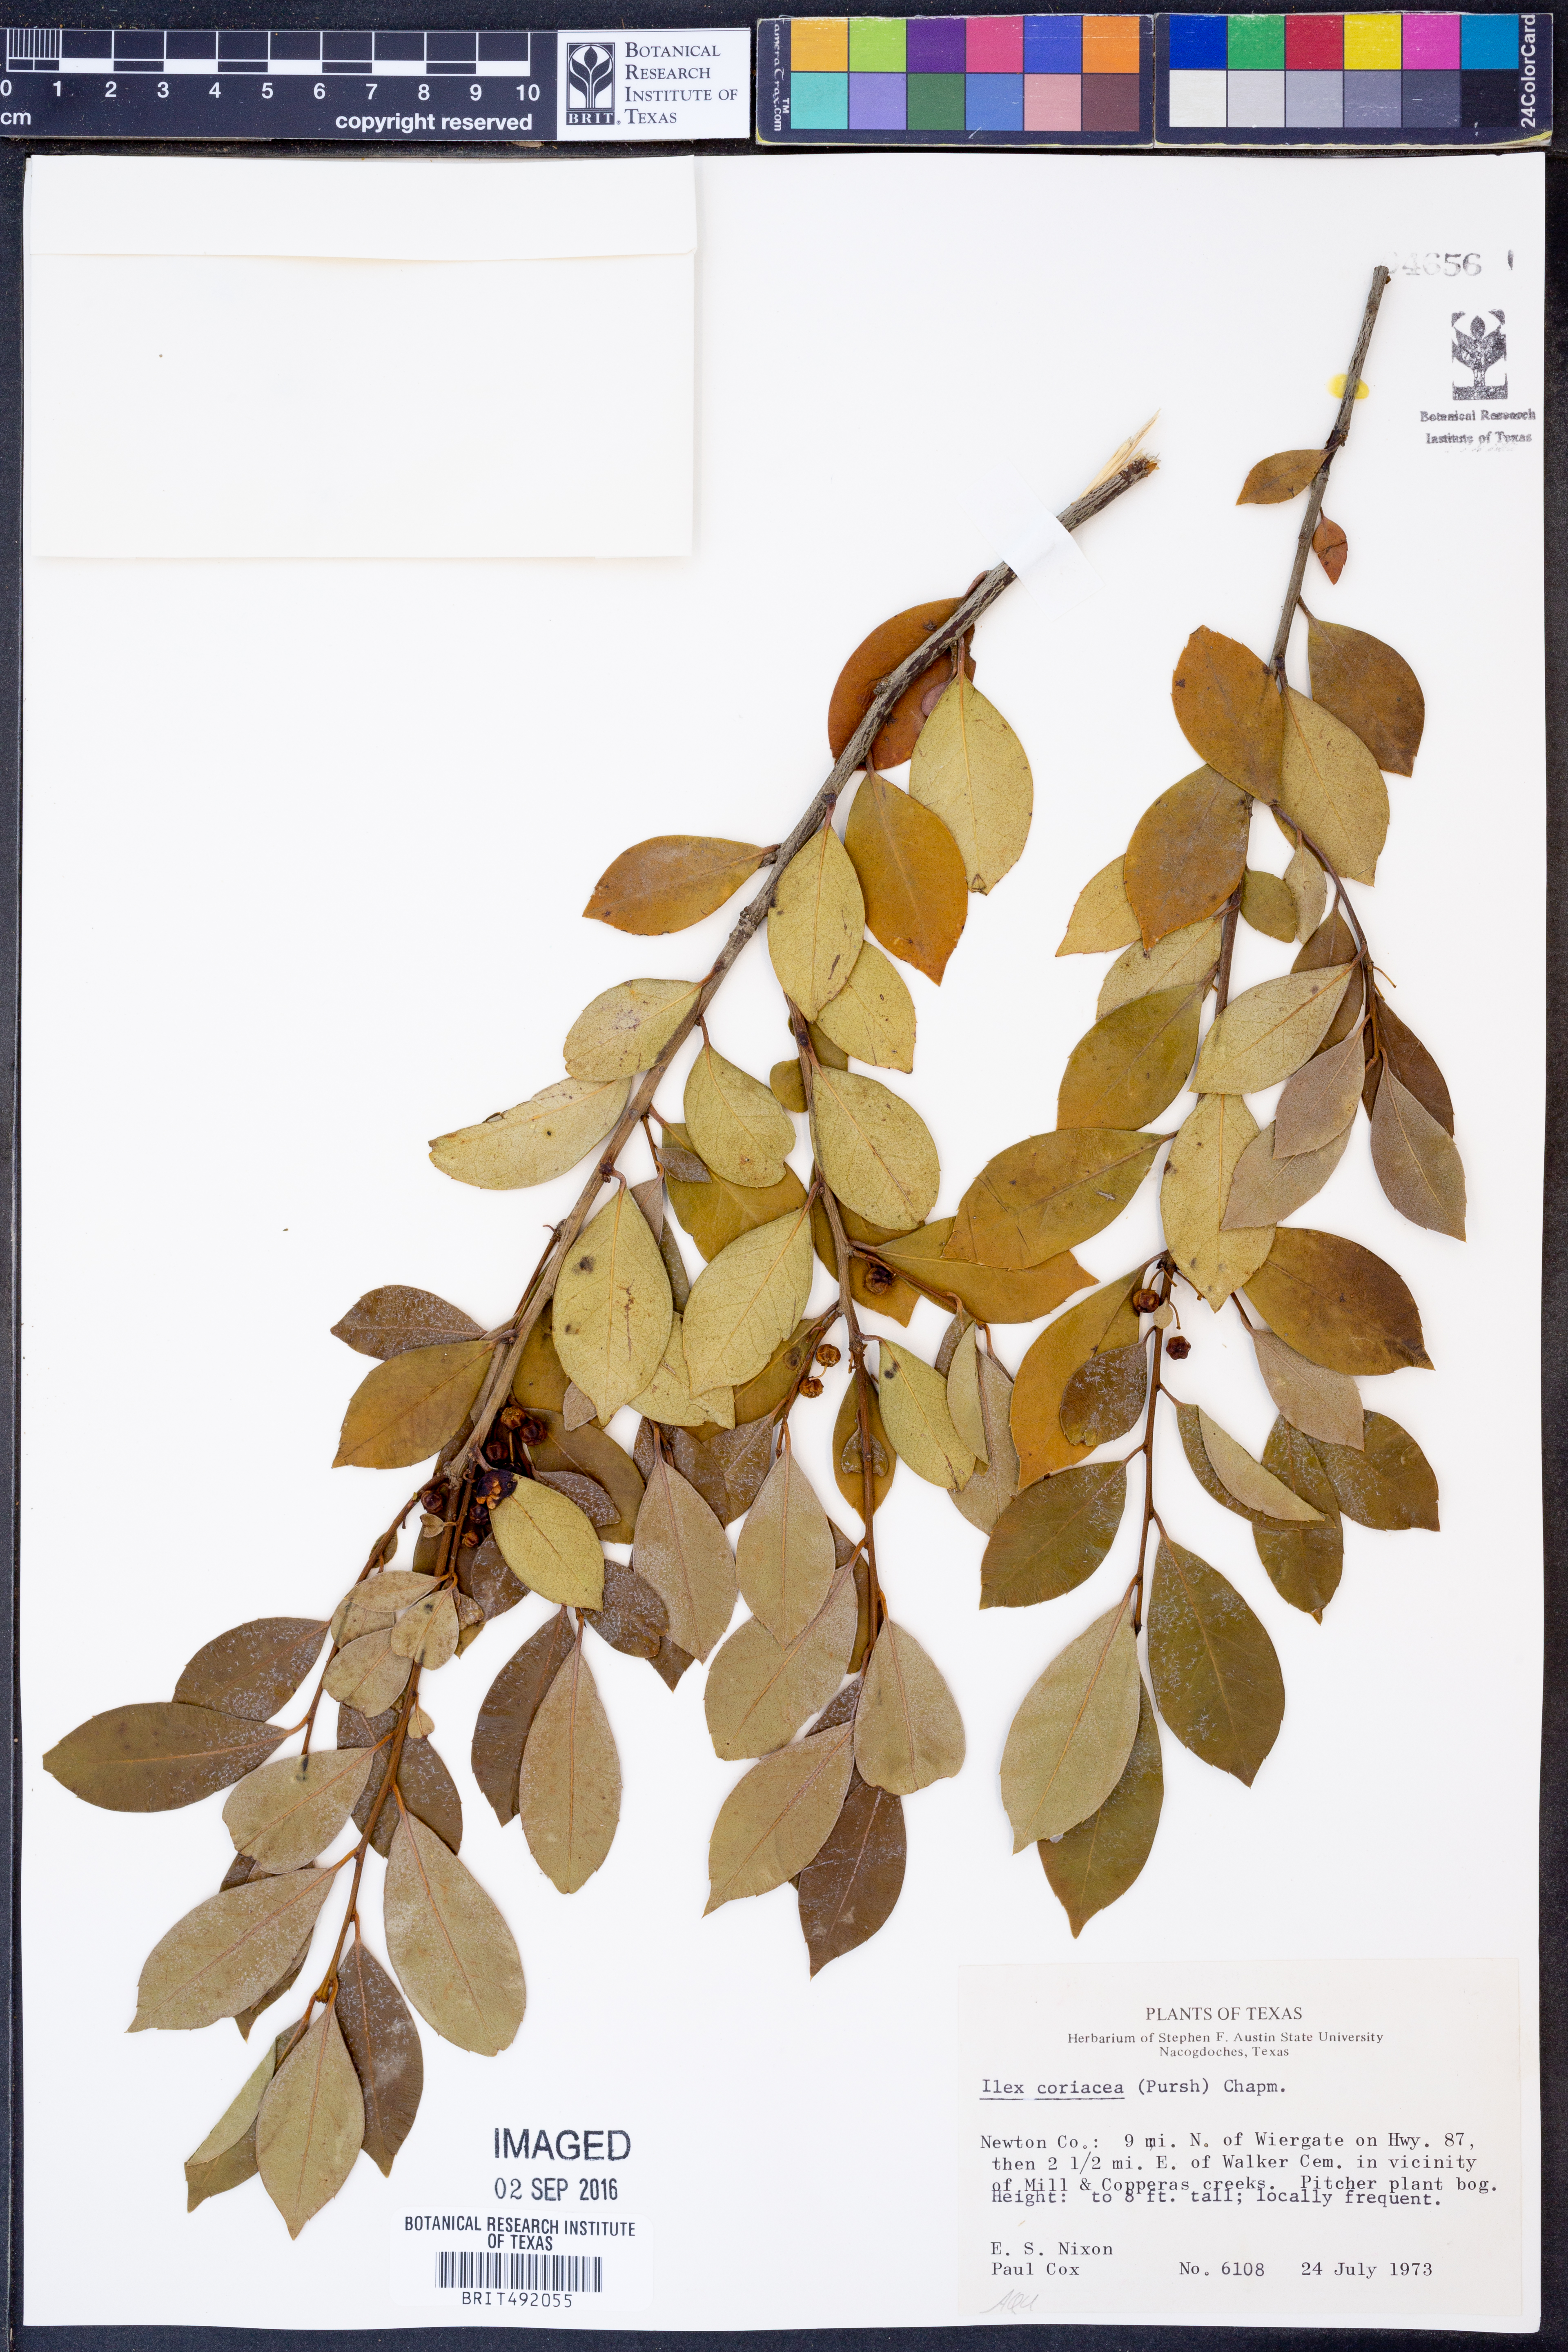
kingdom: Plantae
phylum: Tracheophyta
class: Magnoliopsida
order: Aquifoliales
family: Aquifoliaceae
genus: Ilex
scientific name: Ilex coriacea
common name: Sweet gallberry
